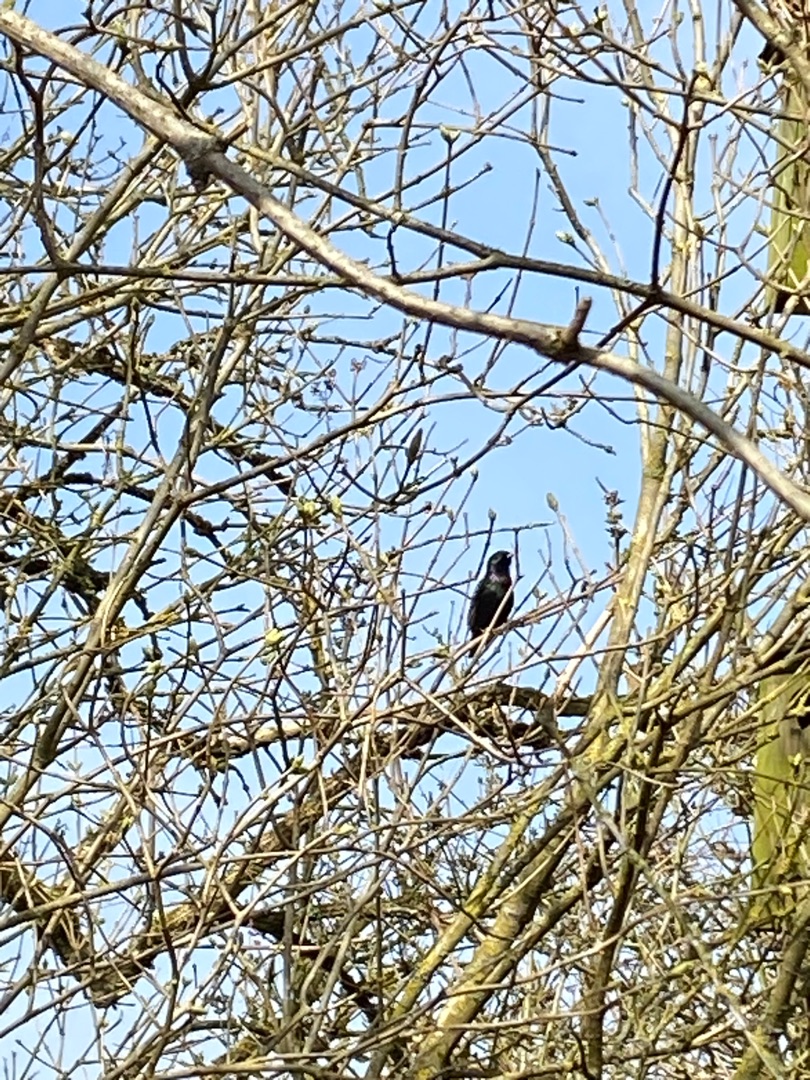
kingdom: Animalia
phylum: Chordata
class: Aves
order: Passeriformes
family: Sturnidae
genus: Sturnus
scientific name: Sturnus vulgaris
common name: Stær
